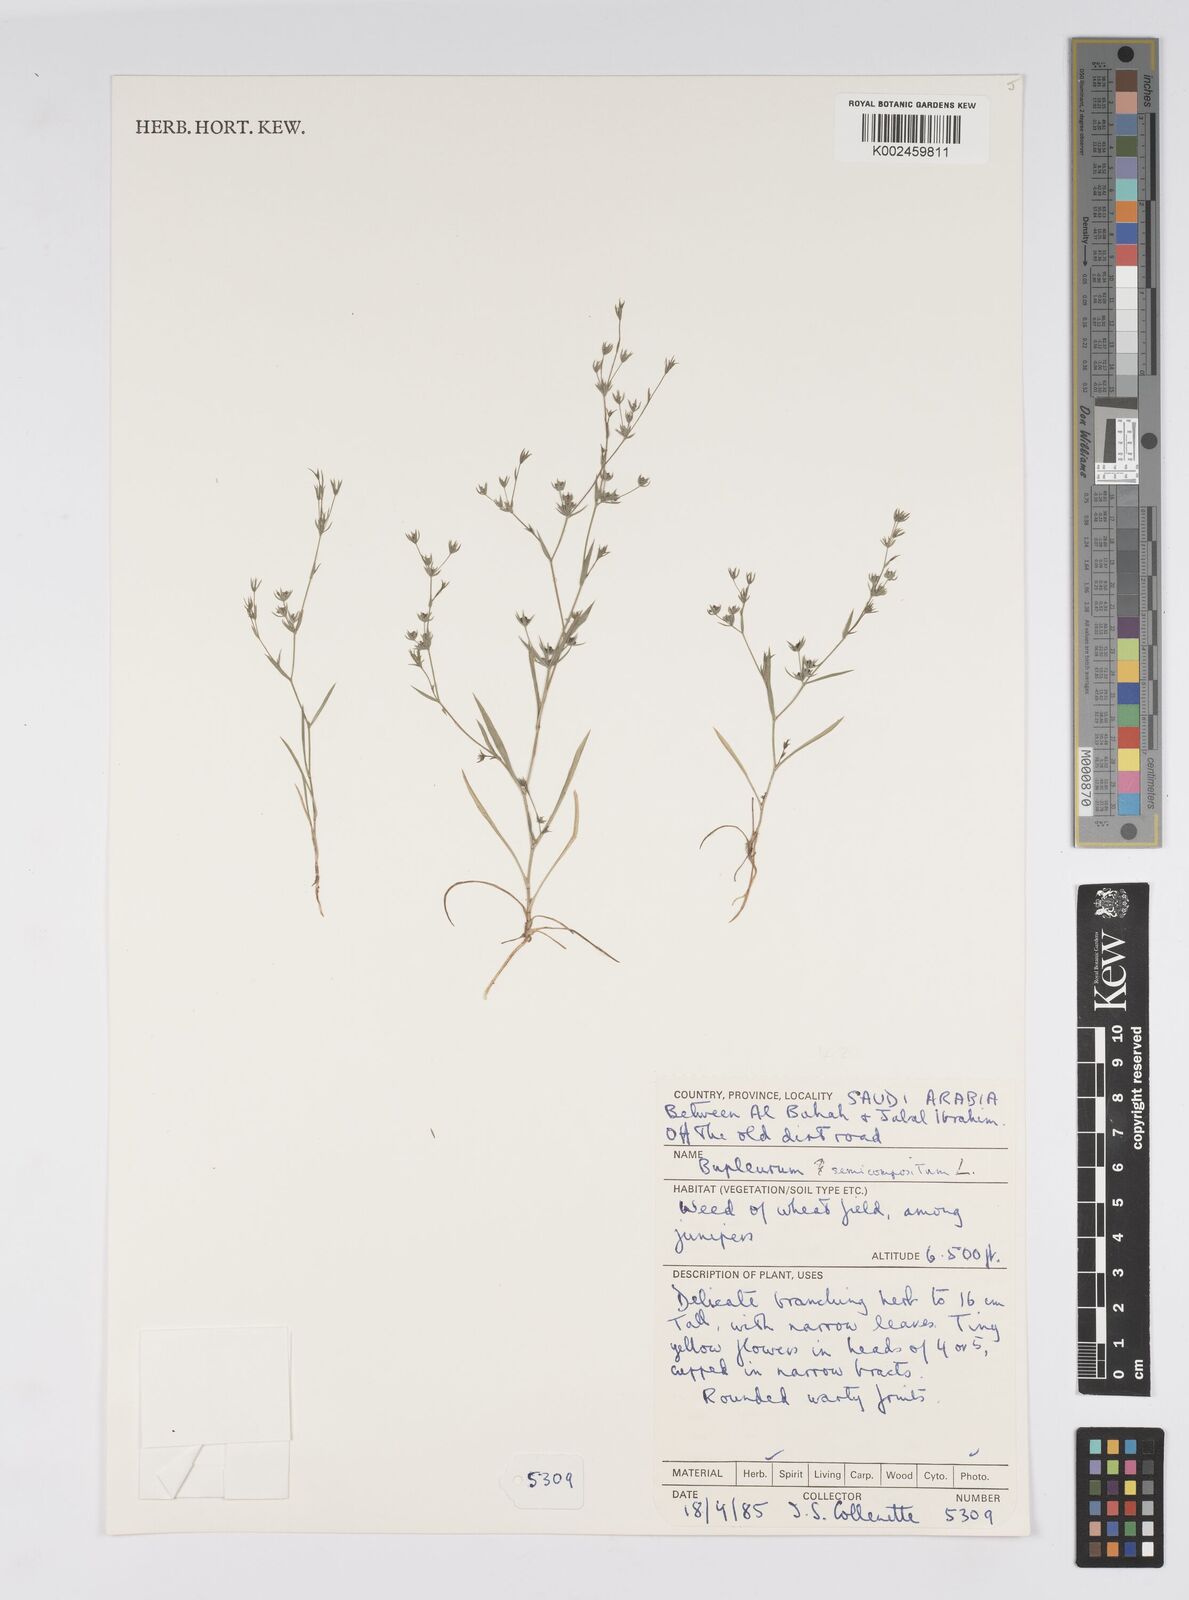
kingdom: Plantae
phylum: Tracheophyta
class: Magnoliopsida
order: Apiales
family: Apiaceae
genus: Bupleurum
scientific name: Bupleurum semicompositum
